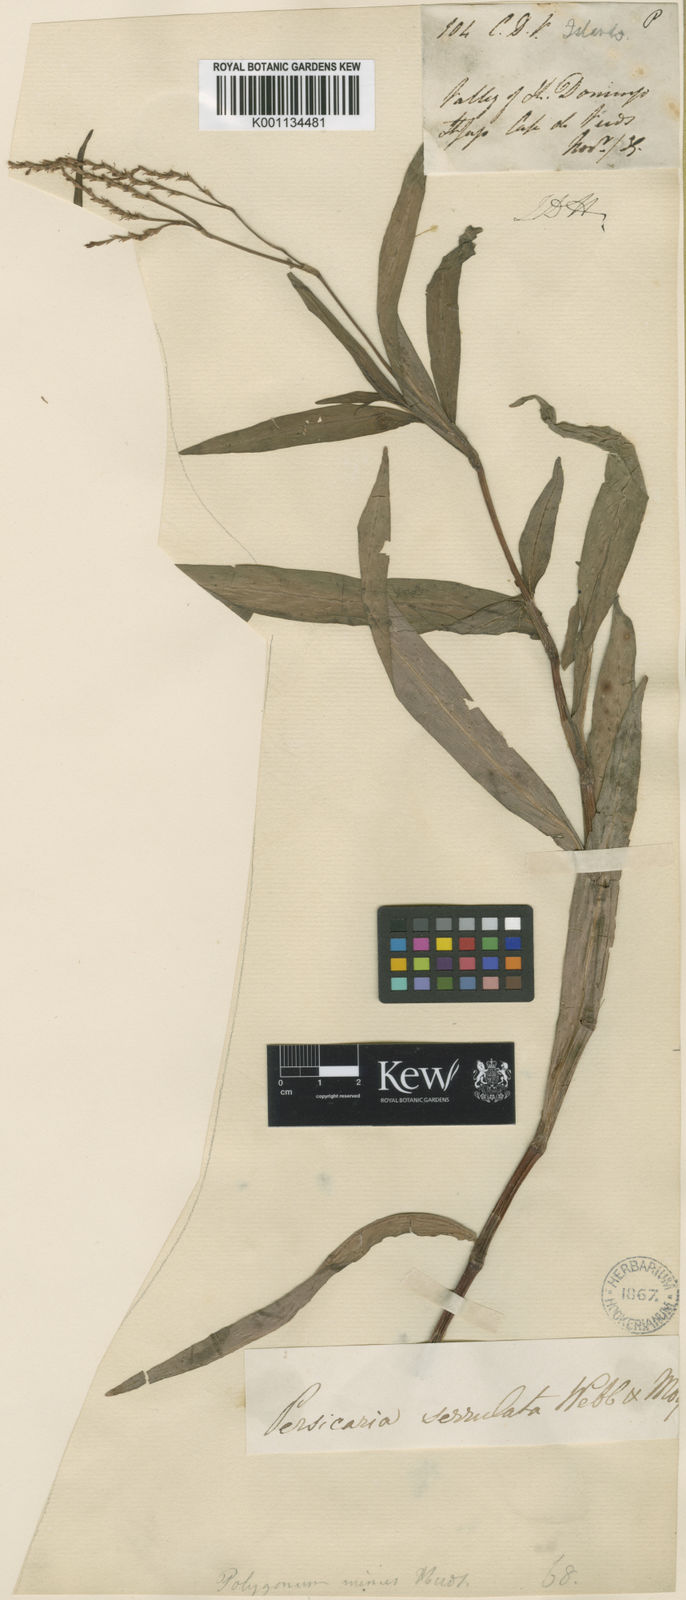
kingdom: Plantae
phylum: Tracheophyta
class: Magnoliopsida
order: Caryophyllales
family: Polygonaceae
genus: Persicaria
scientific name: Persicaria decipiens
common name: Willow-weed
